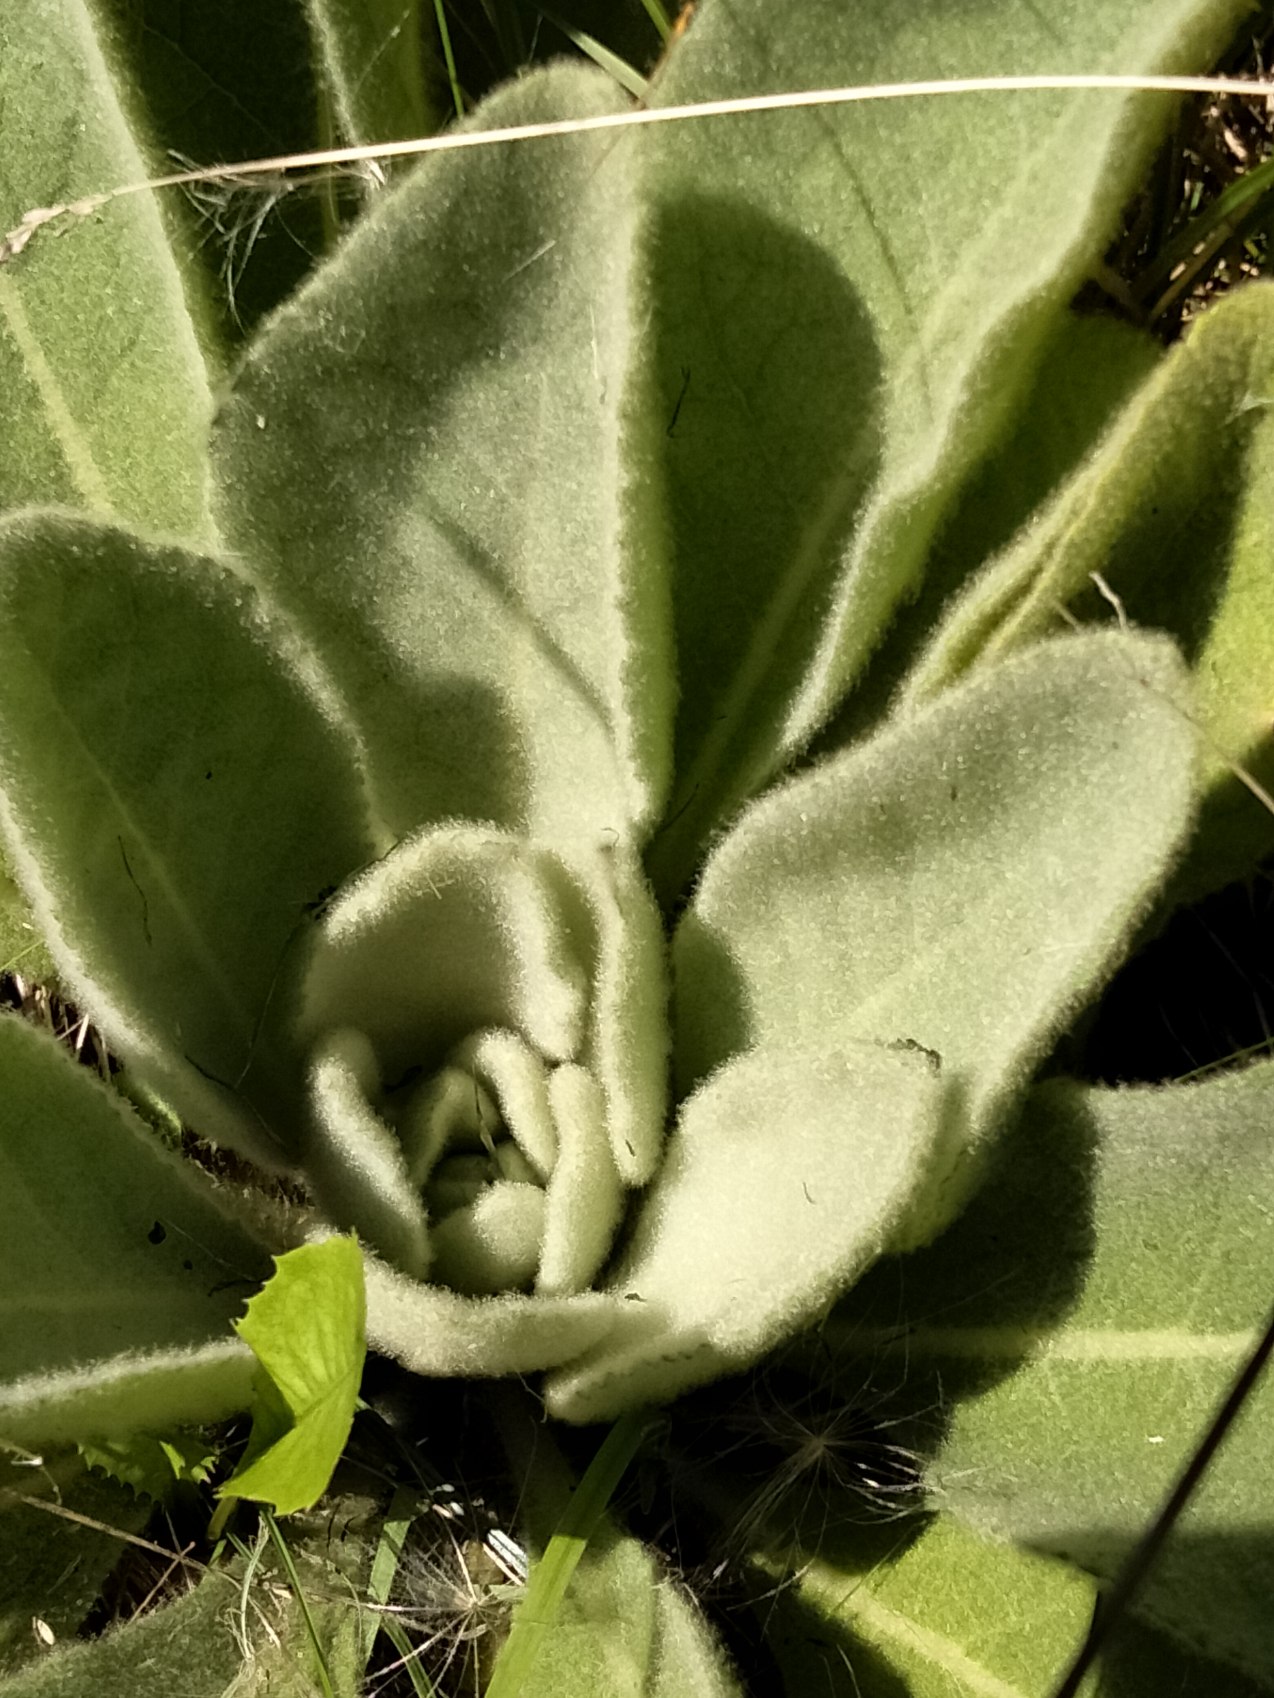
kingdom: Plantae
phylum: Tracheophyta
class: Magnoliopsida
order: Lamiales
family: Scrophulariaceae
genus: Verbascum
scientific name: Verbascum thapsus
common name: Filtbladet kongelys
